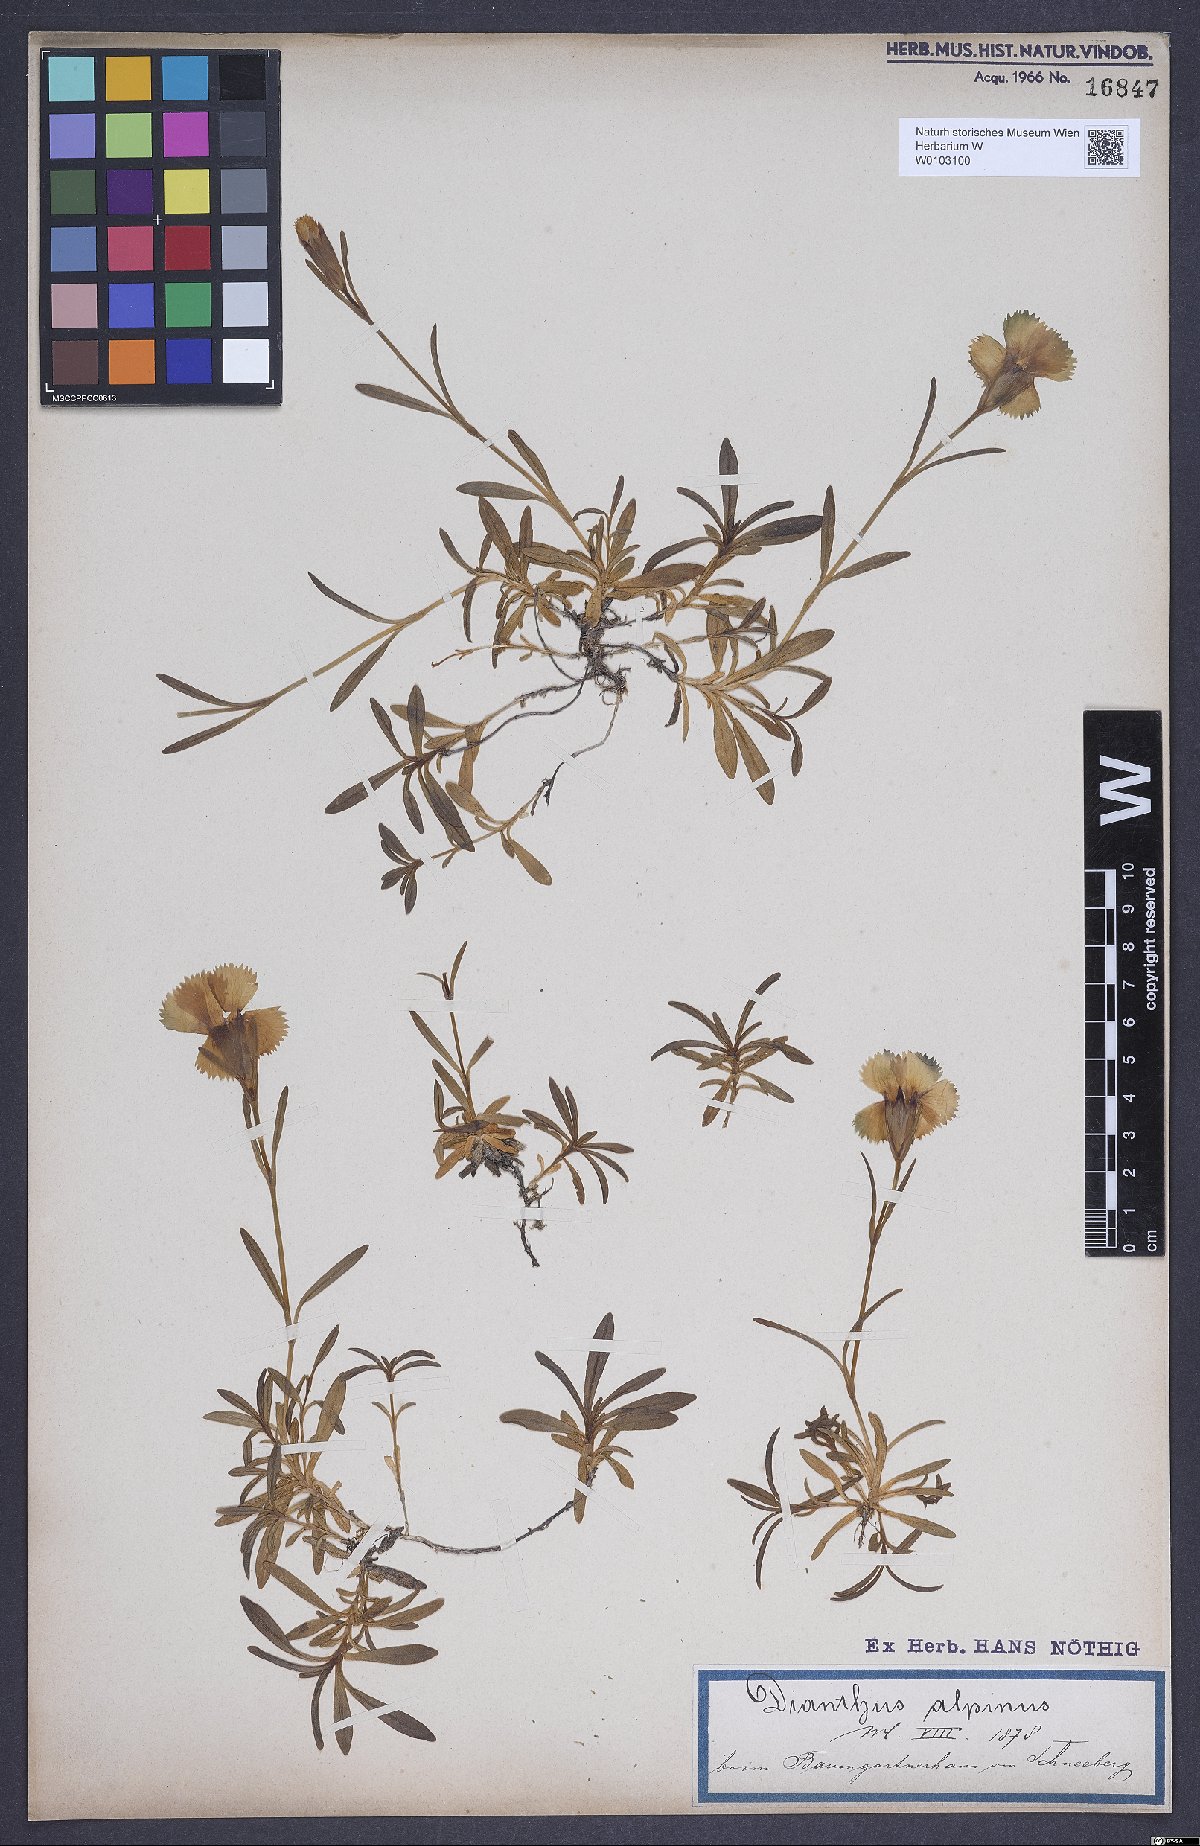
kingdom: Plantae
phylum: Tracheophyta
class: Magnoliopsida
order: Caryophyllales
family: Caryophyllaceae
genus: Dianthus
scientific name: Dianthus alpinus
